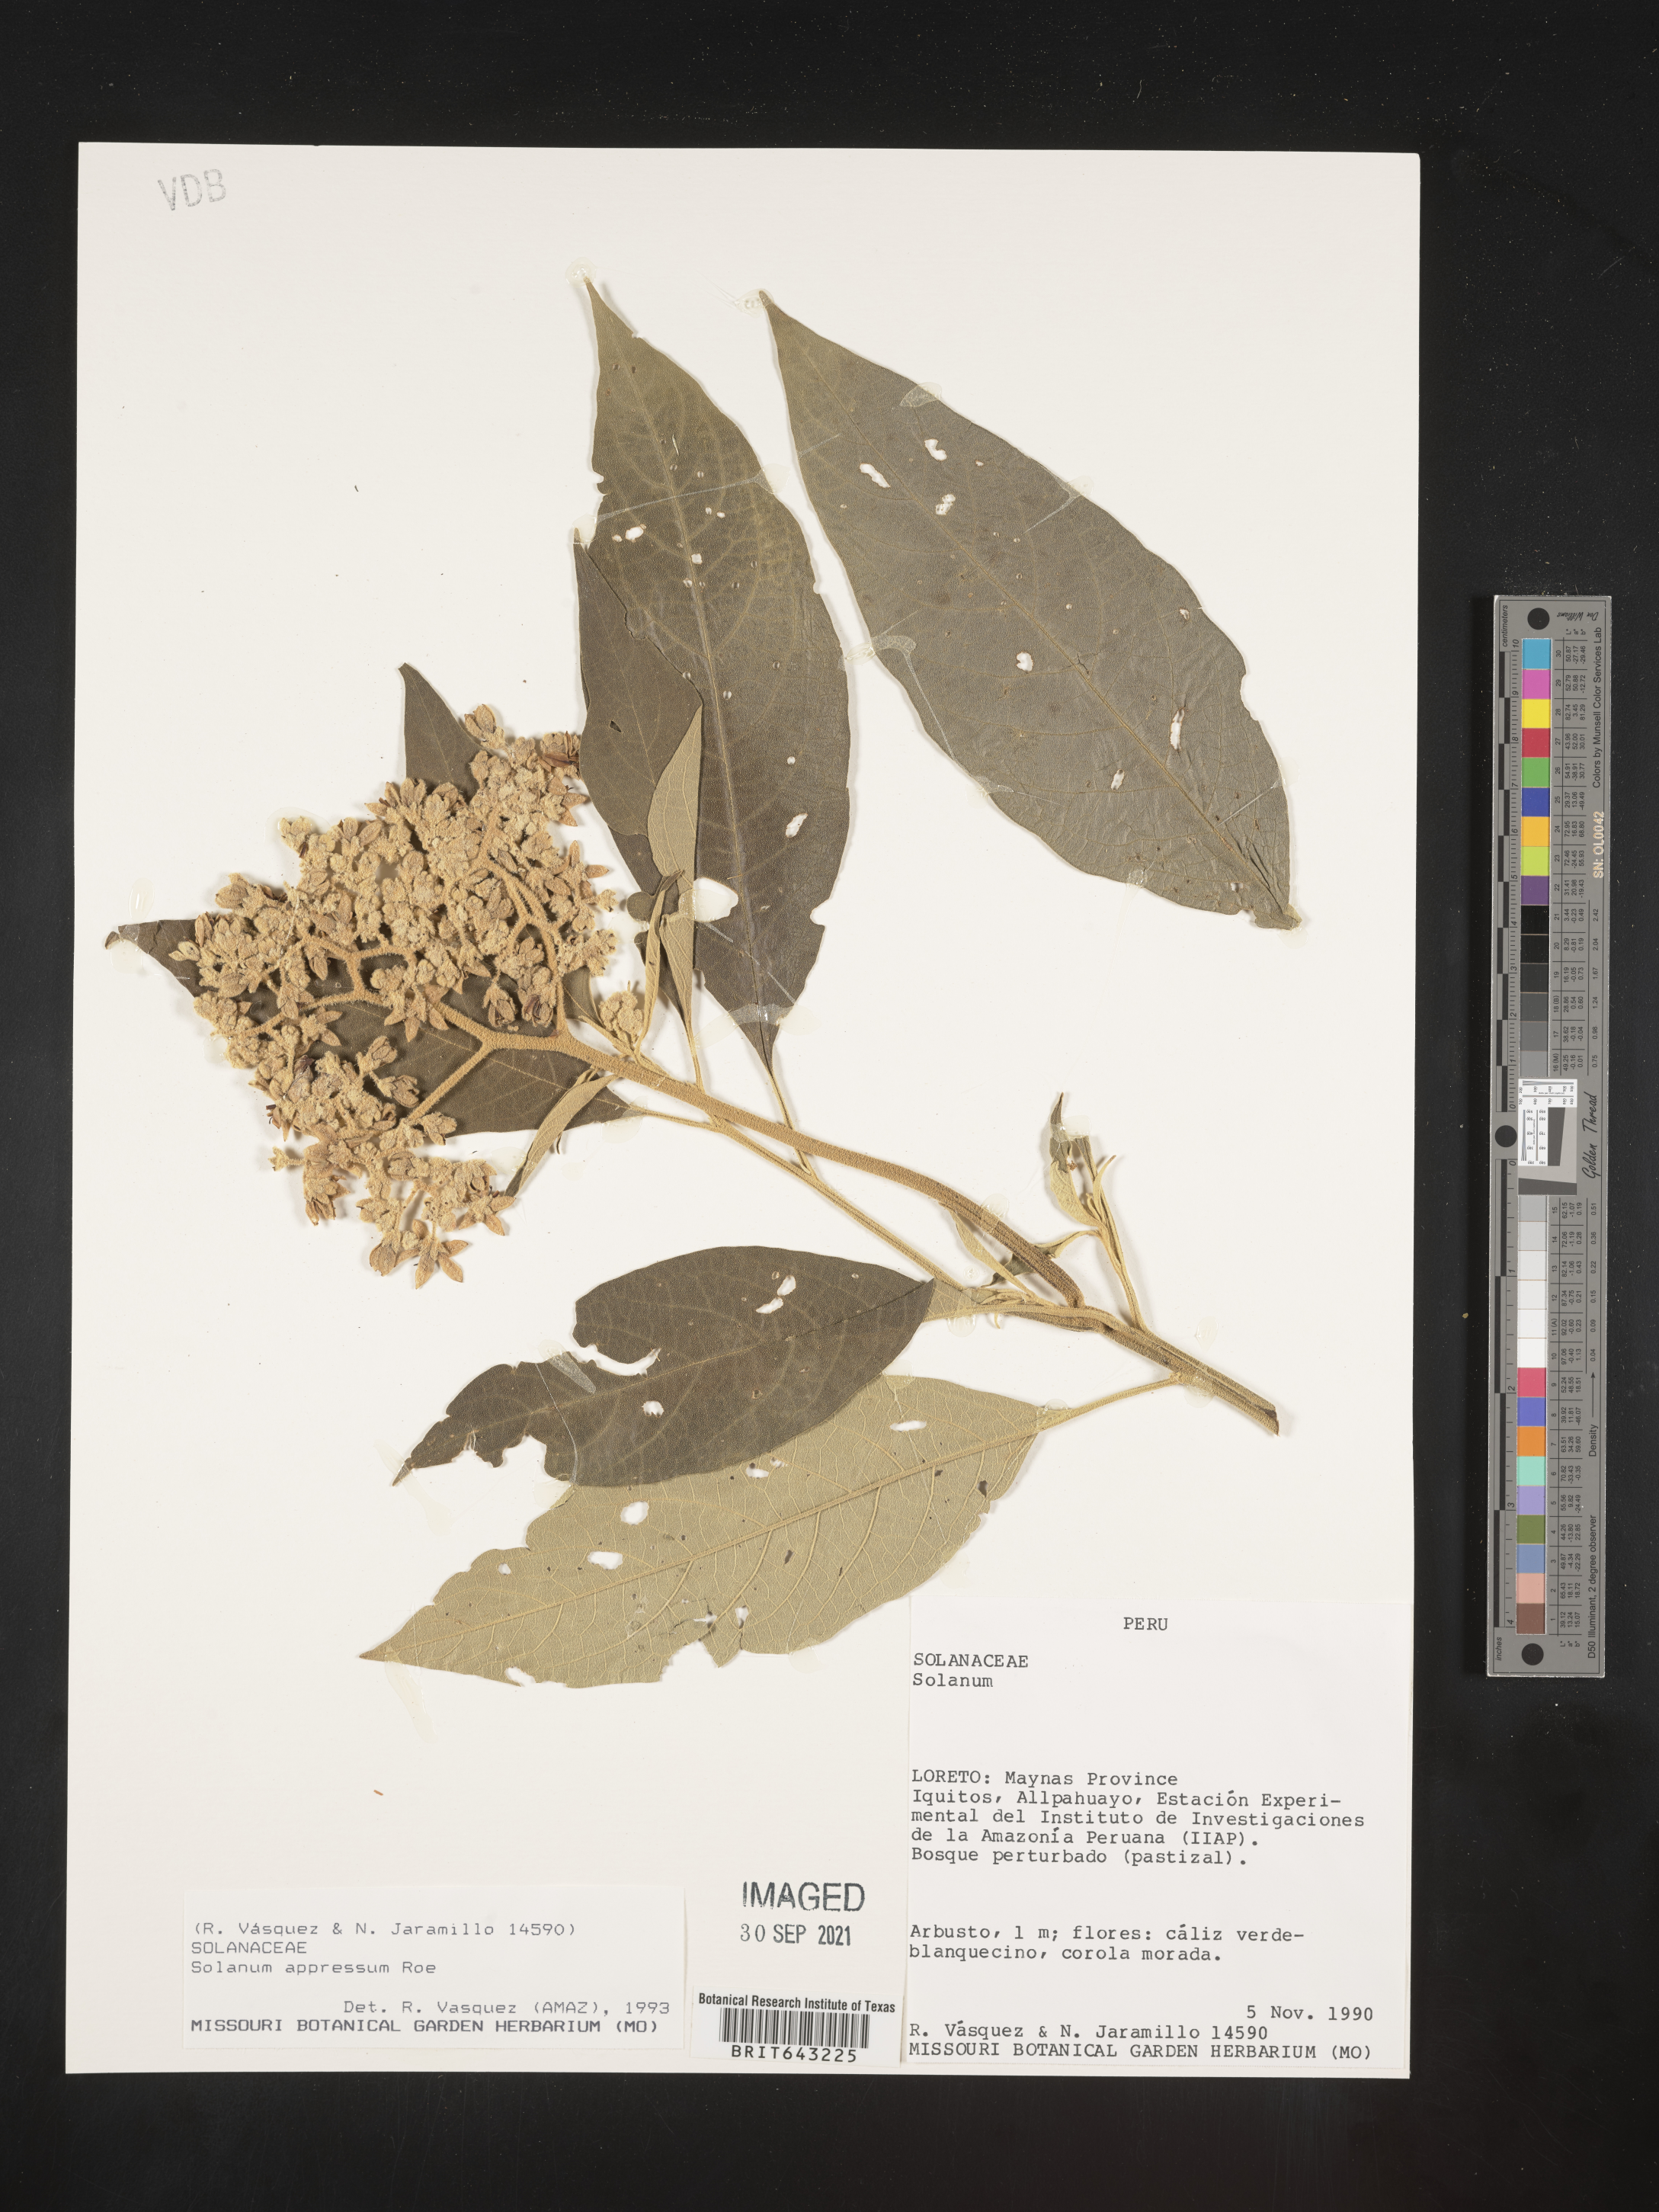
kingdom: Plantae
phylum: Tracheophyta
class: Magnoliopsida
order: Solanales
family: Solanaceae
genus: Solanum
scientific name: Solanum
